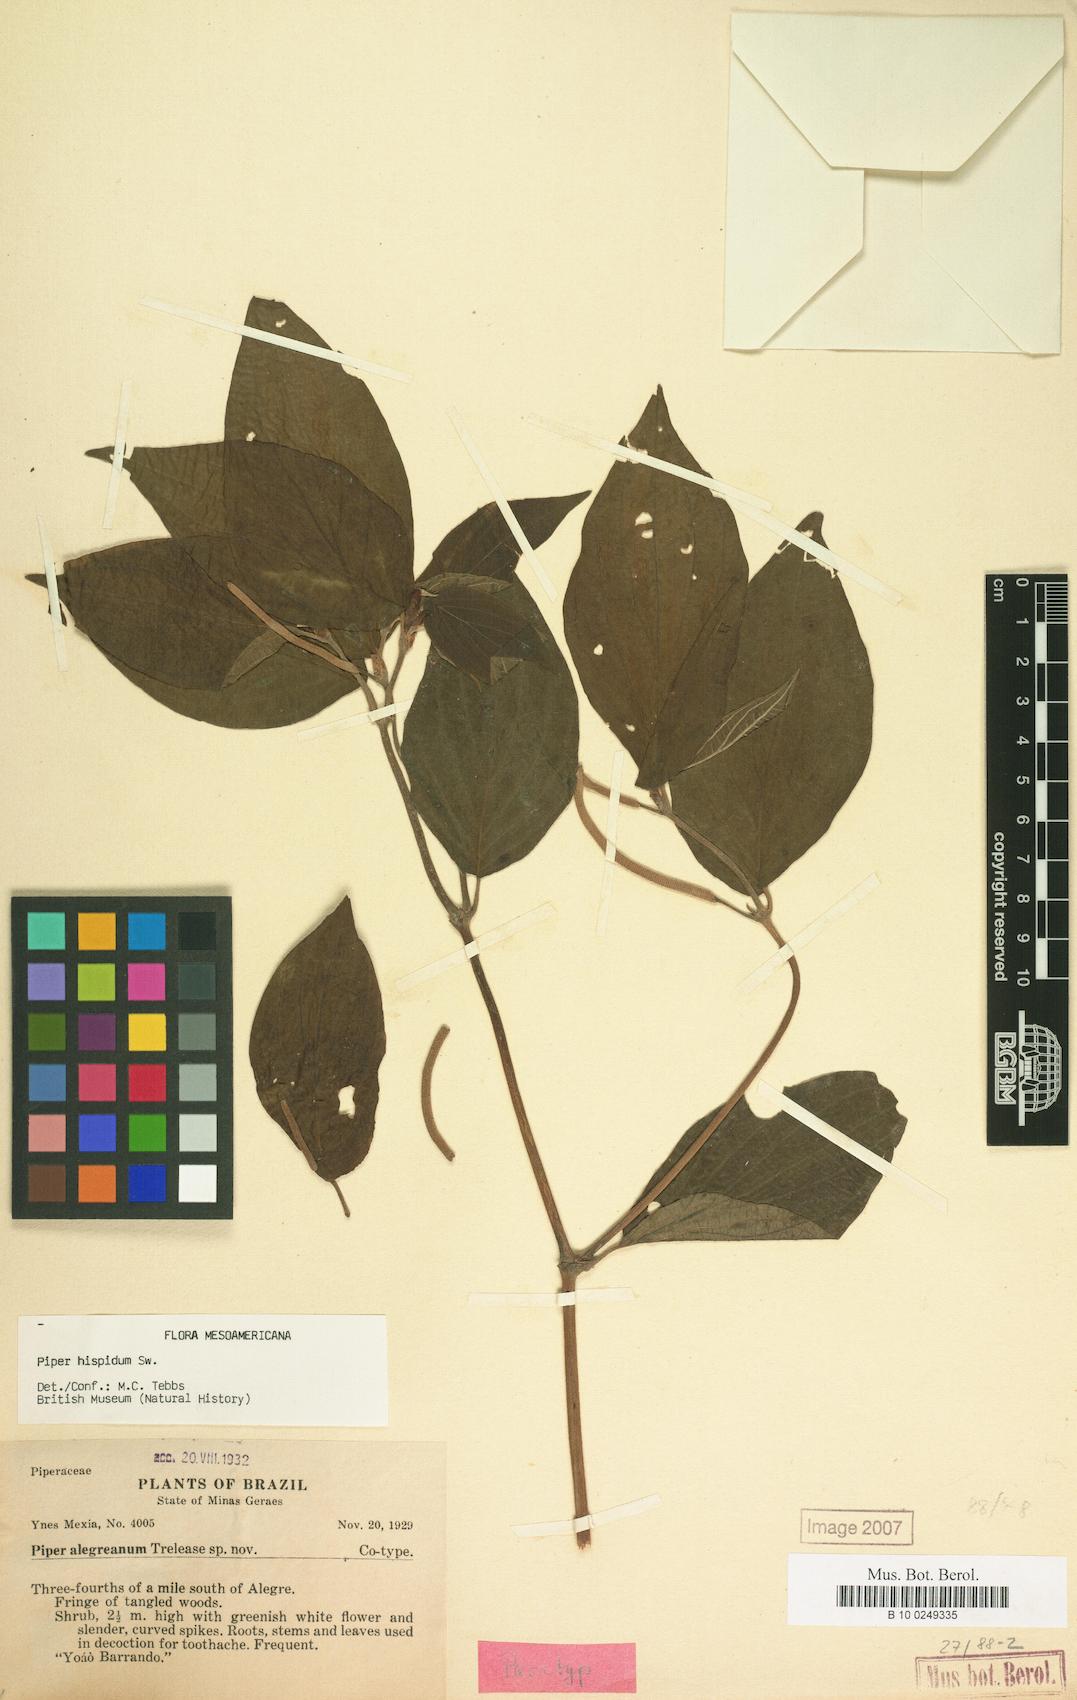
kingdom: Plantae
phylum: Tracheophyta
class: Magnoliopsida
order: Piperales
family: Piperaceae
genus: Piper
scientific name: Piper hispidum
